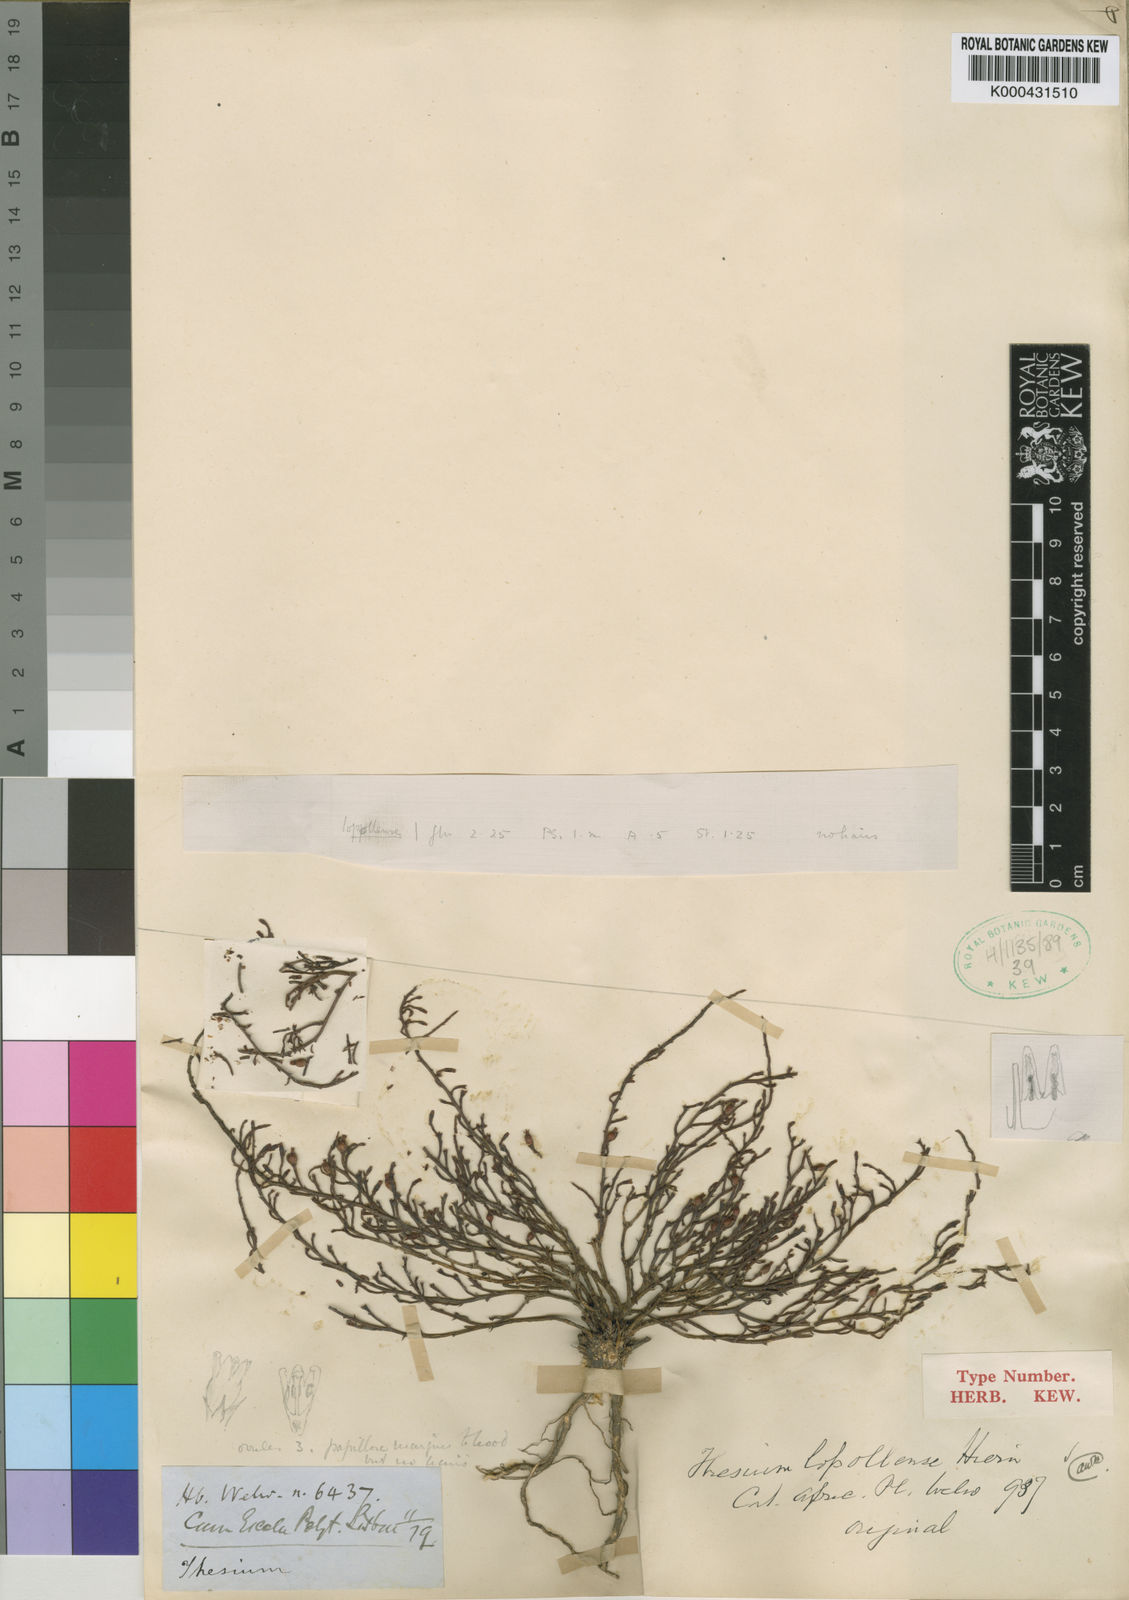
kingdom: Plantae
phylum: Tracheophyta
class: Magnoliopsida
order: Santalales
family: Thesiaceae
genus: Thesium
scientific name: Thesium lopollense
